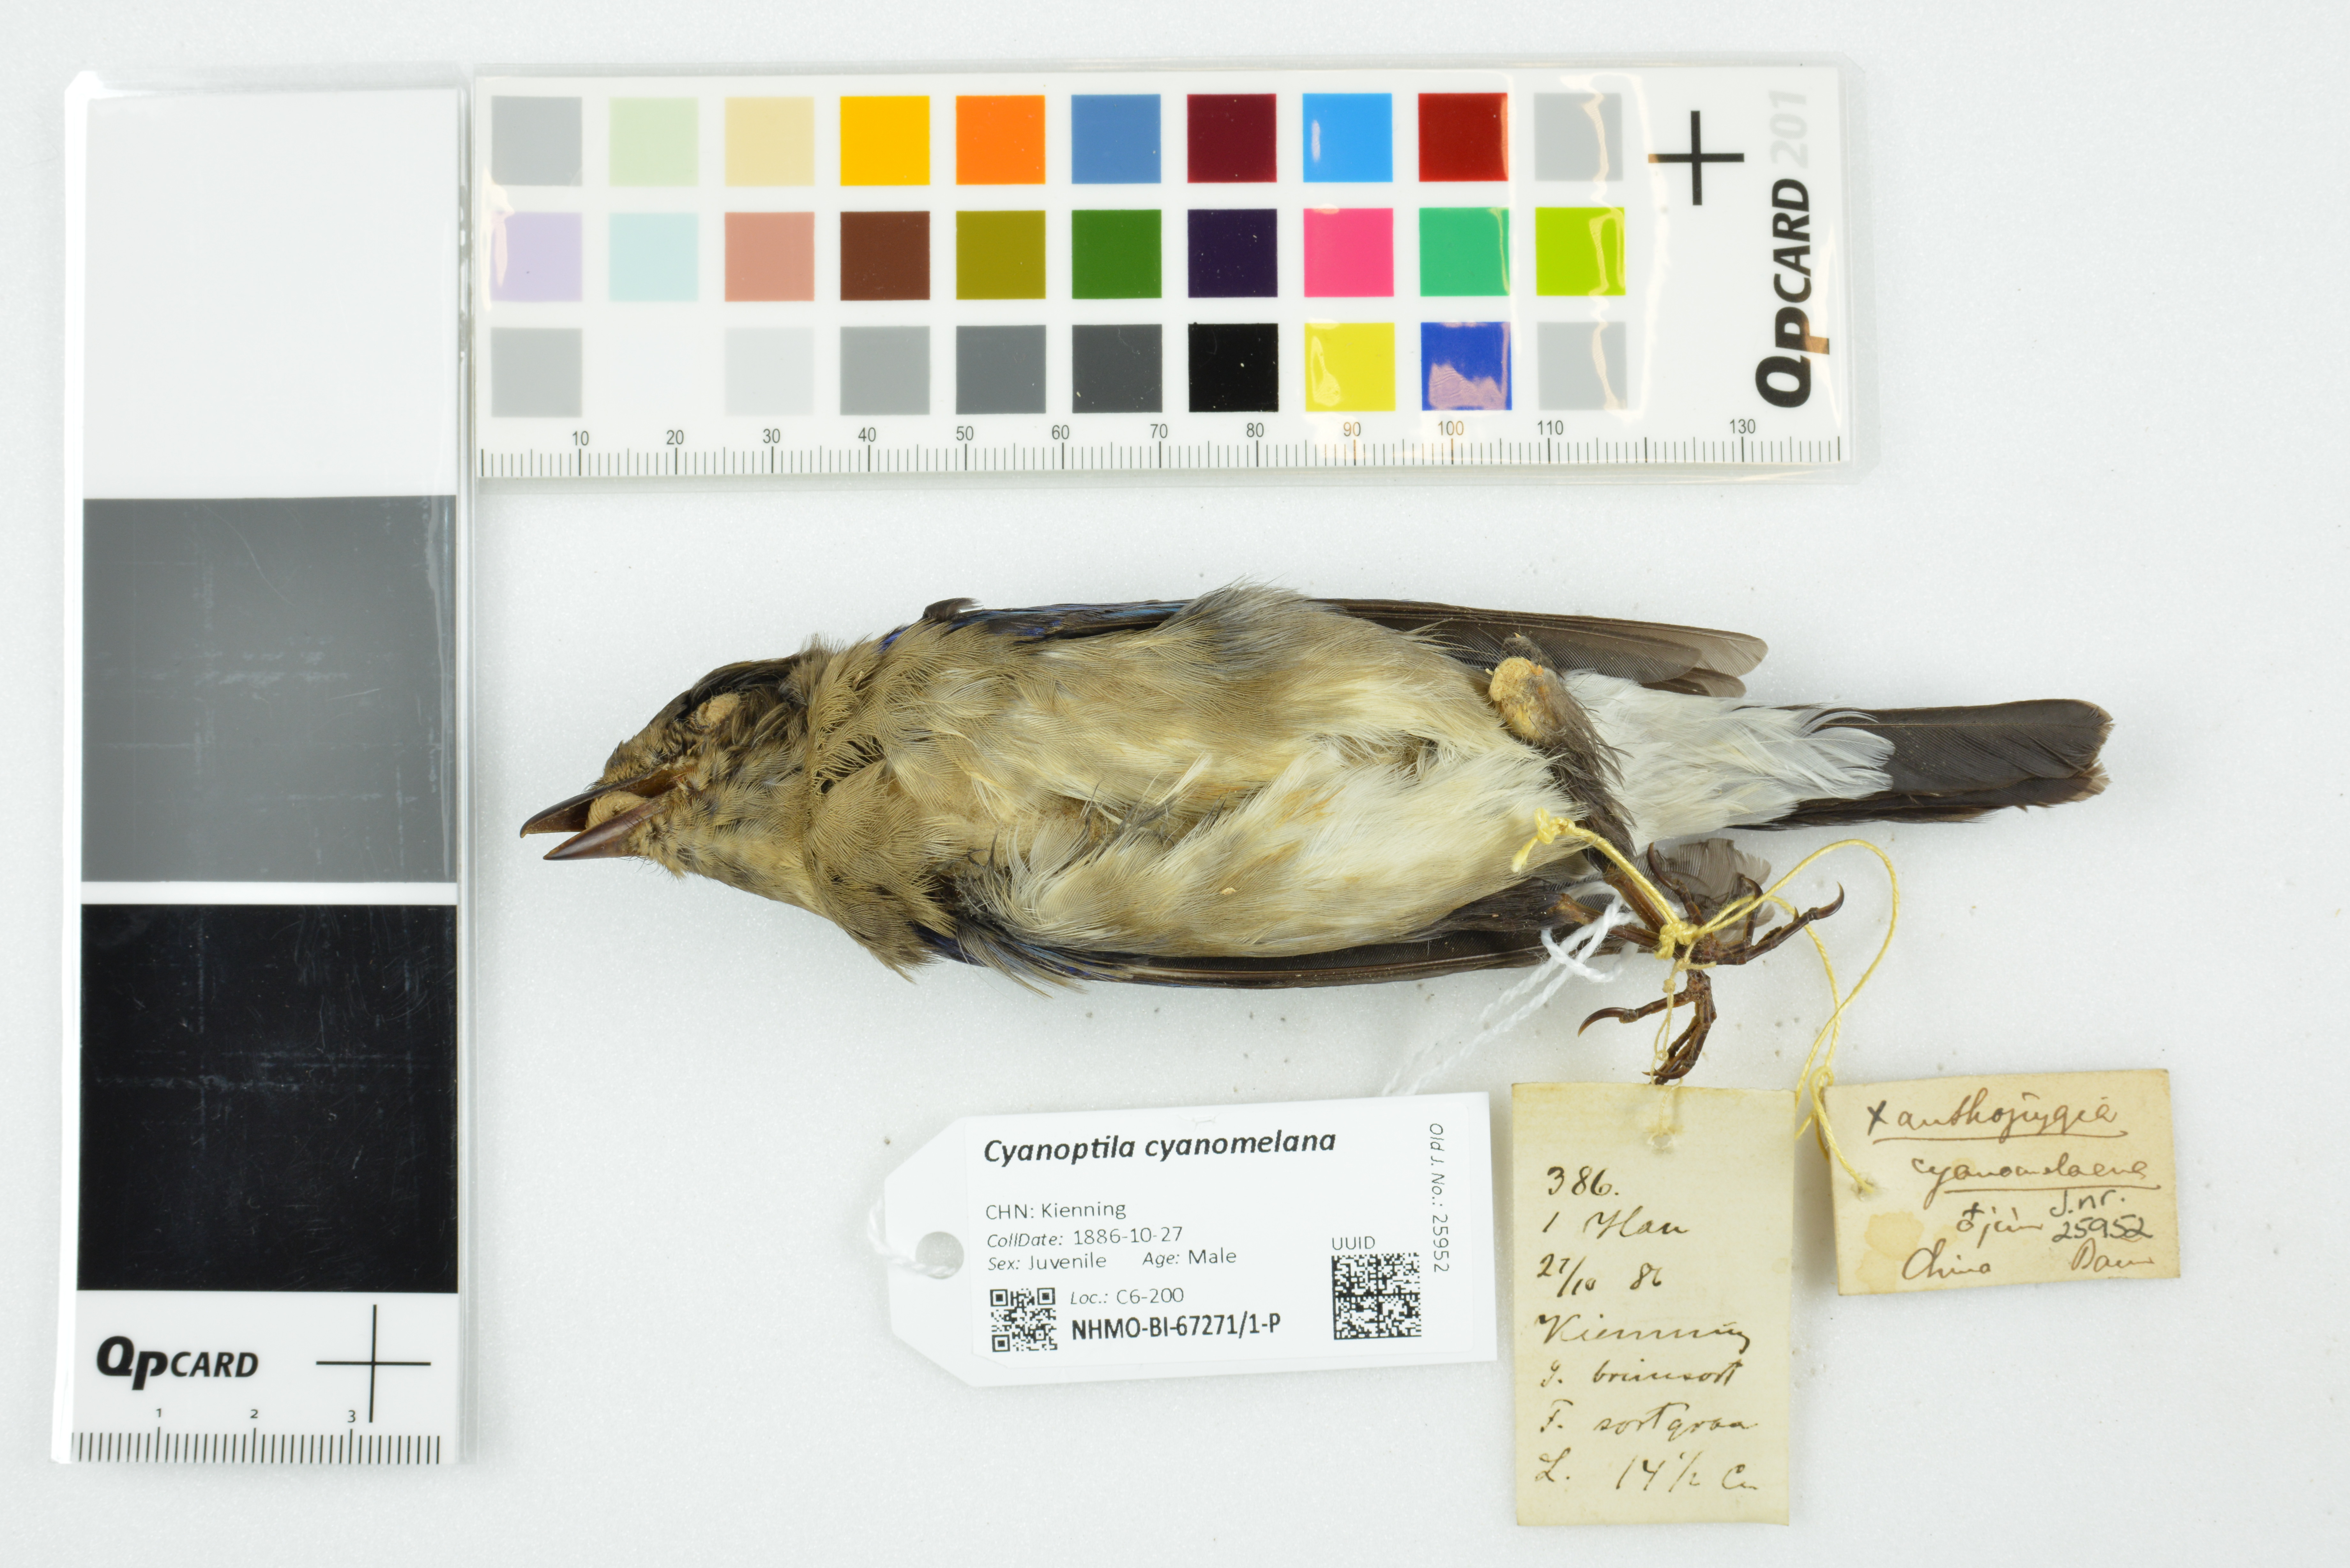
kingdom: Animalia
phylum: Chordata
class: Aves
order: Passeriformes
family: Muscicapidae
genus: Cyanoptila
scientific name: Cyanoptila cyanomelana
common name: Blue-and-white flycatcher
